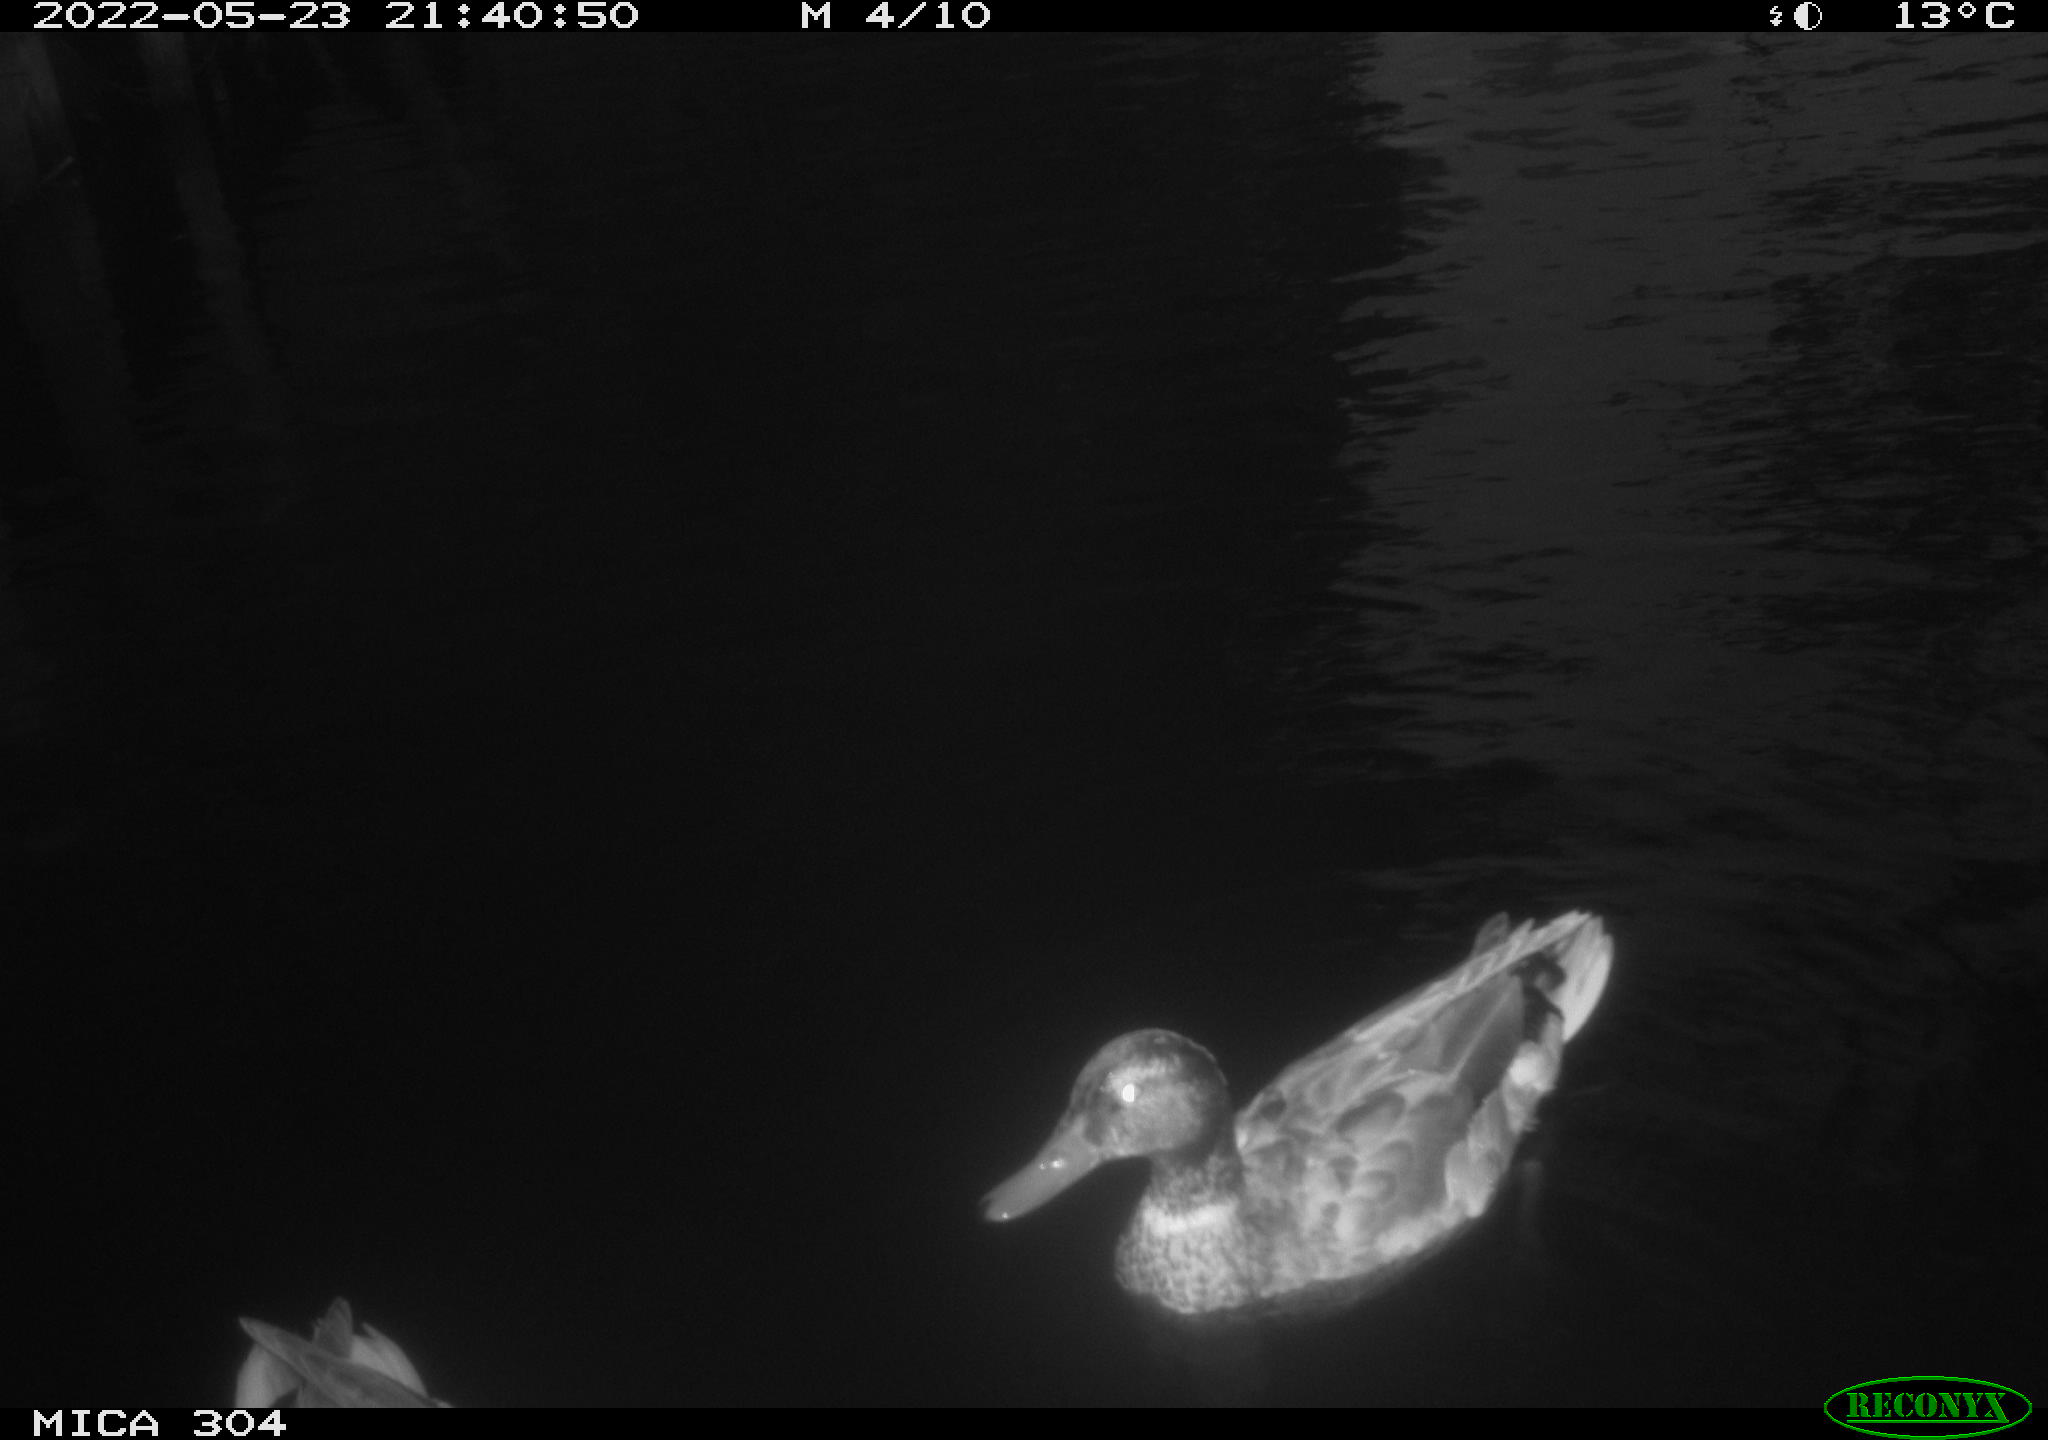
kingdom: Animalia
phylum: Chordata
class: Aves
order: Anseriformes
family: Anatidae
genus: Anas
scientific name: Anas platyrhynchos
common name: Mallard
